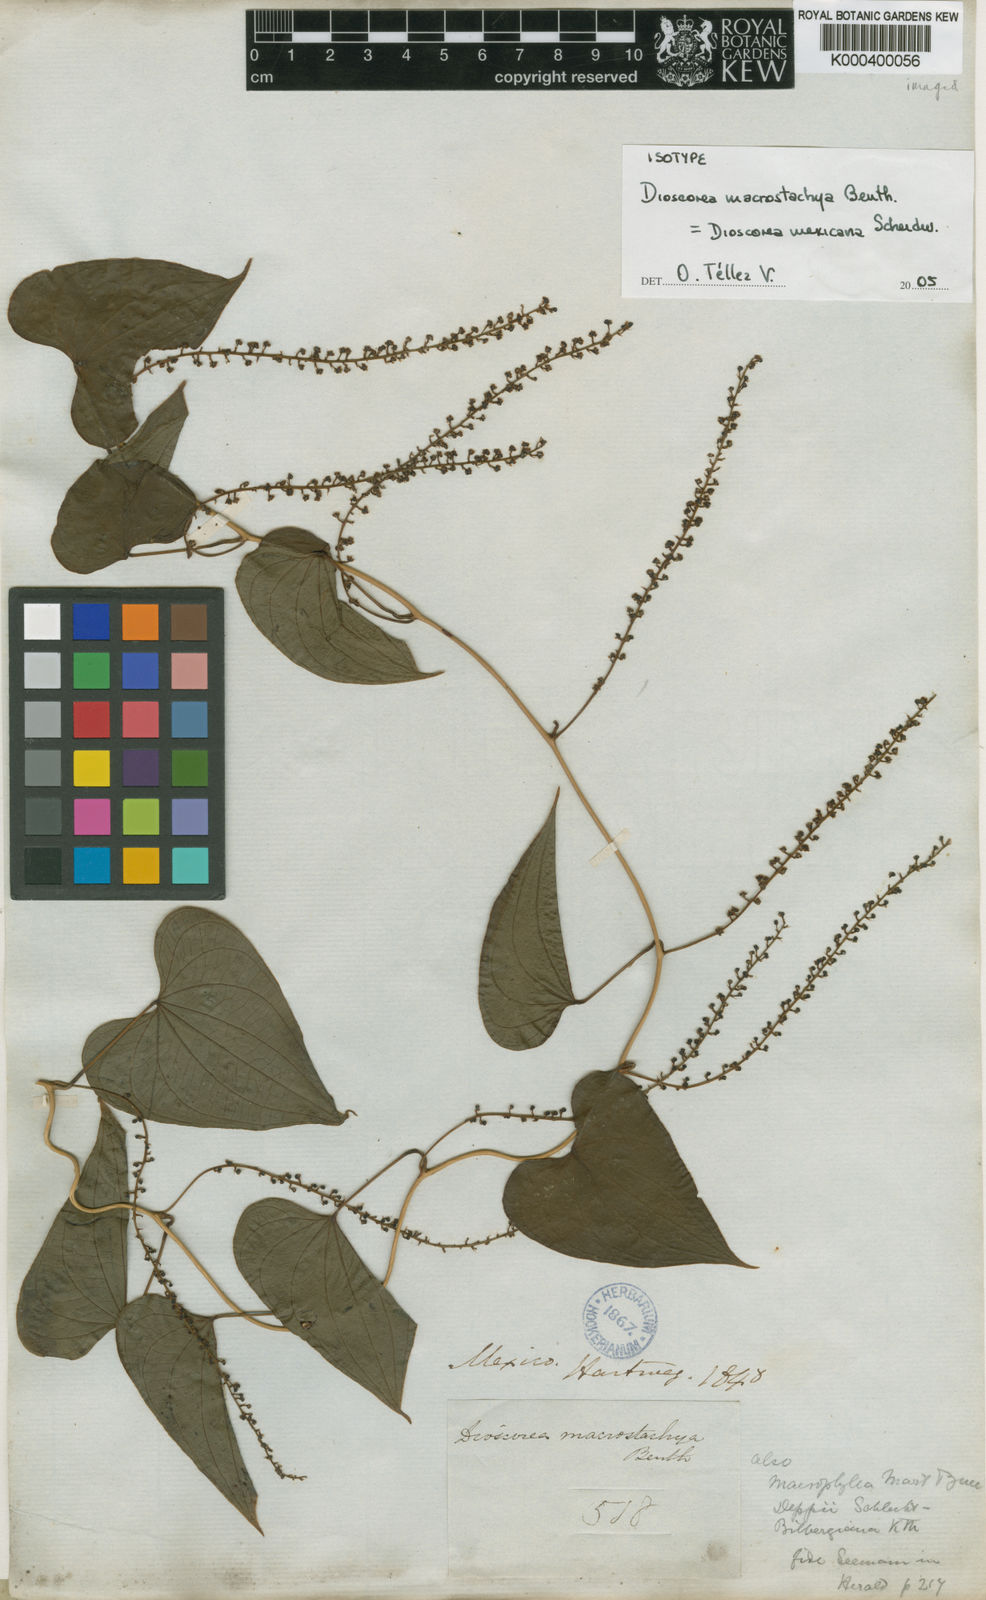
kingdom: Plantae
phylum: Tracheophyta
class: Liliopsida
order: Dioscoreales
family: Dioscoreaceae
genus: Dioscorea
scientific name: Dioscorea mexicana
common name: Mexican yam
